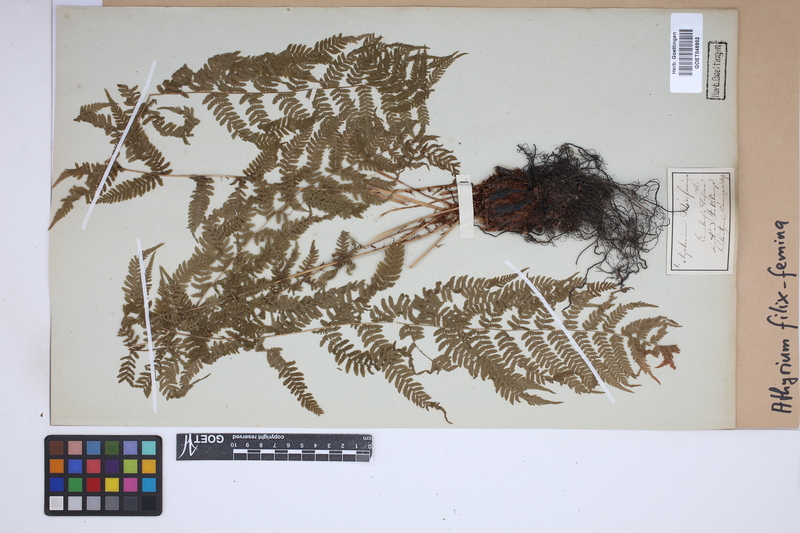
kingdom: Plantae
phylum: Tracheophyta
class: Polypodiopsida
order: Polypodiales
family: Athyriaceae
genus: Athyrium
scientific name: Athyrium filix-femina
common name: Lady fern
